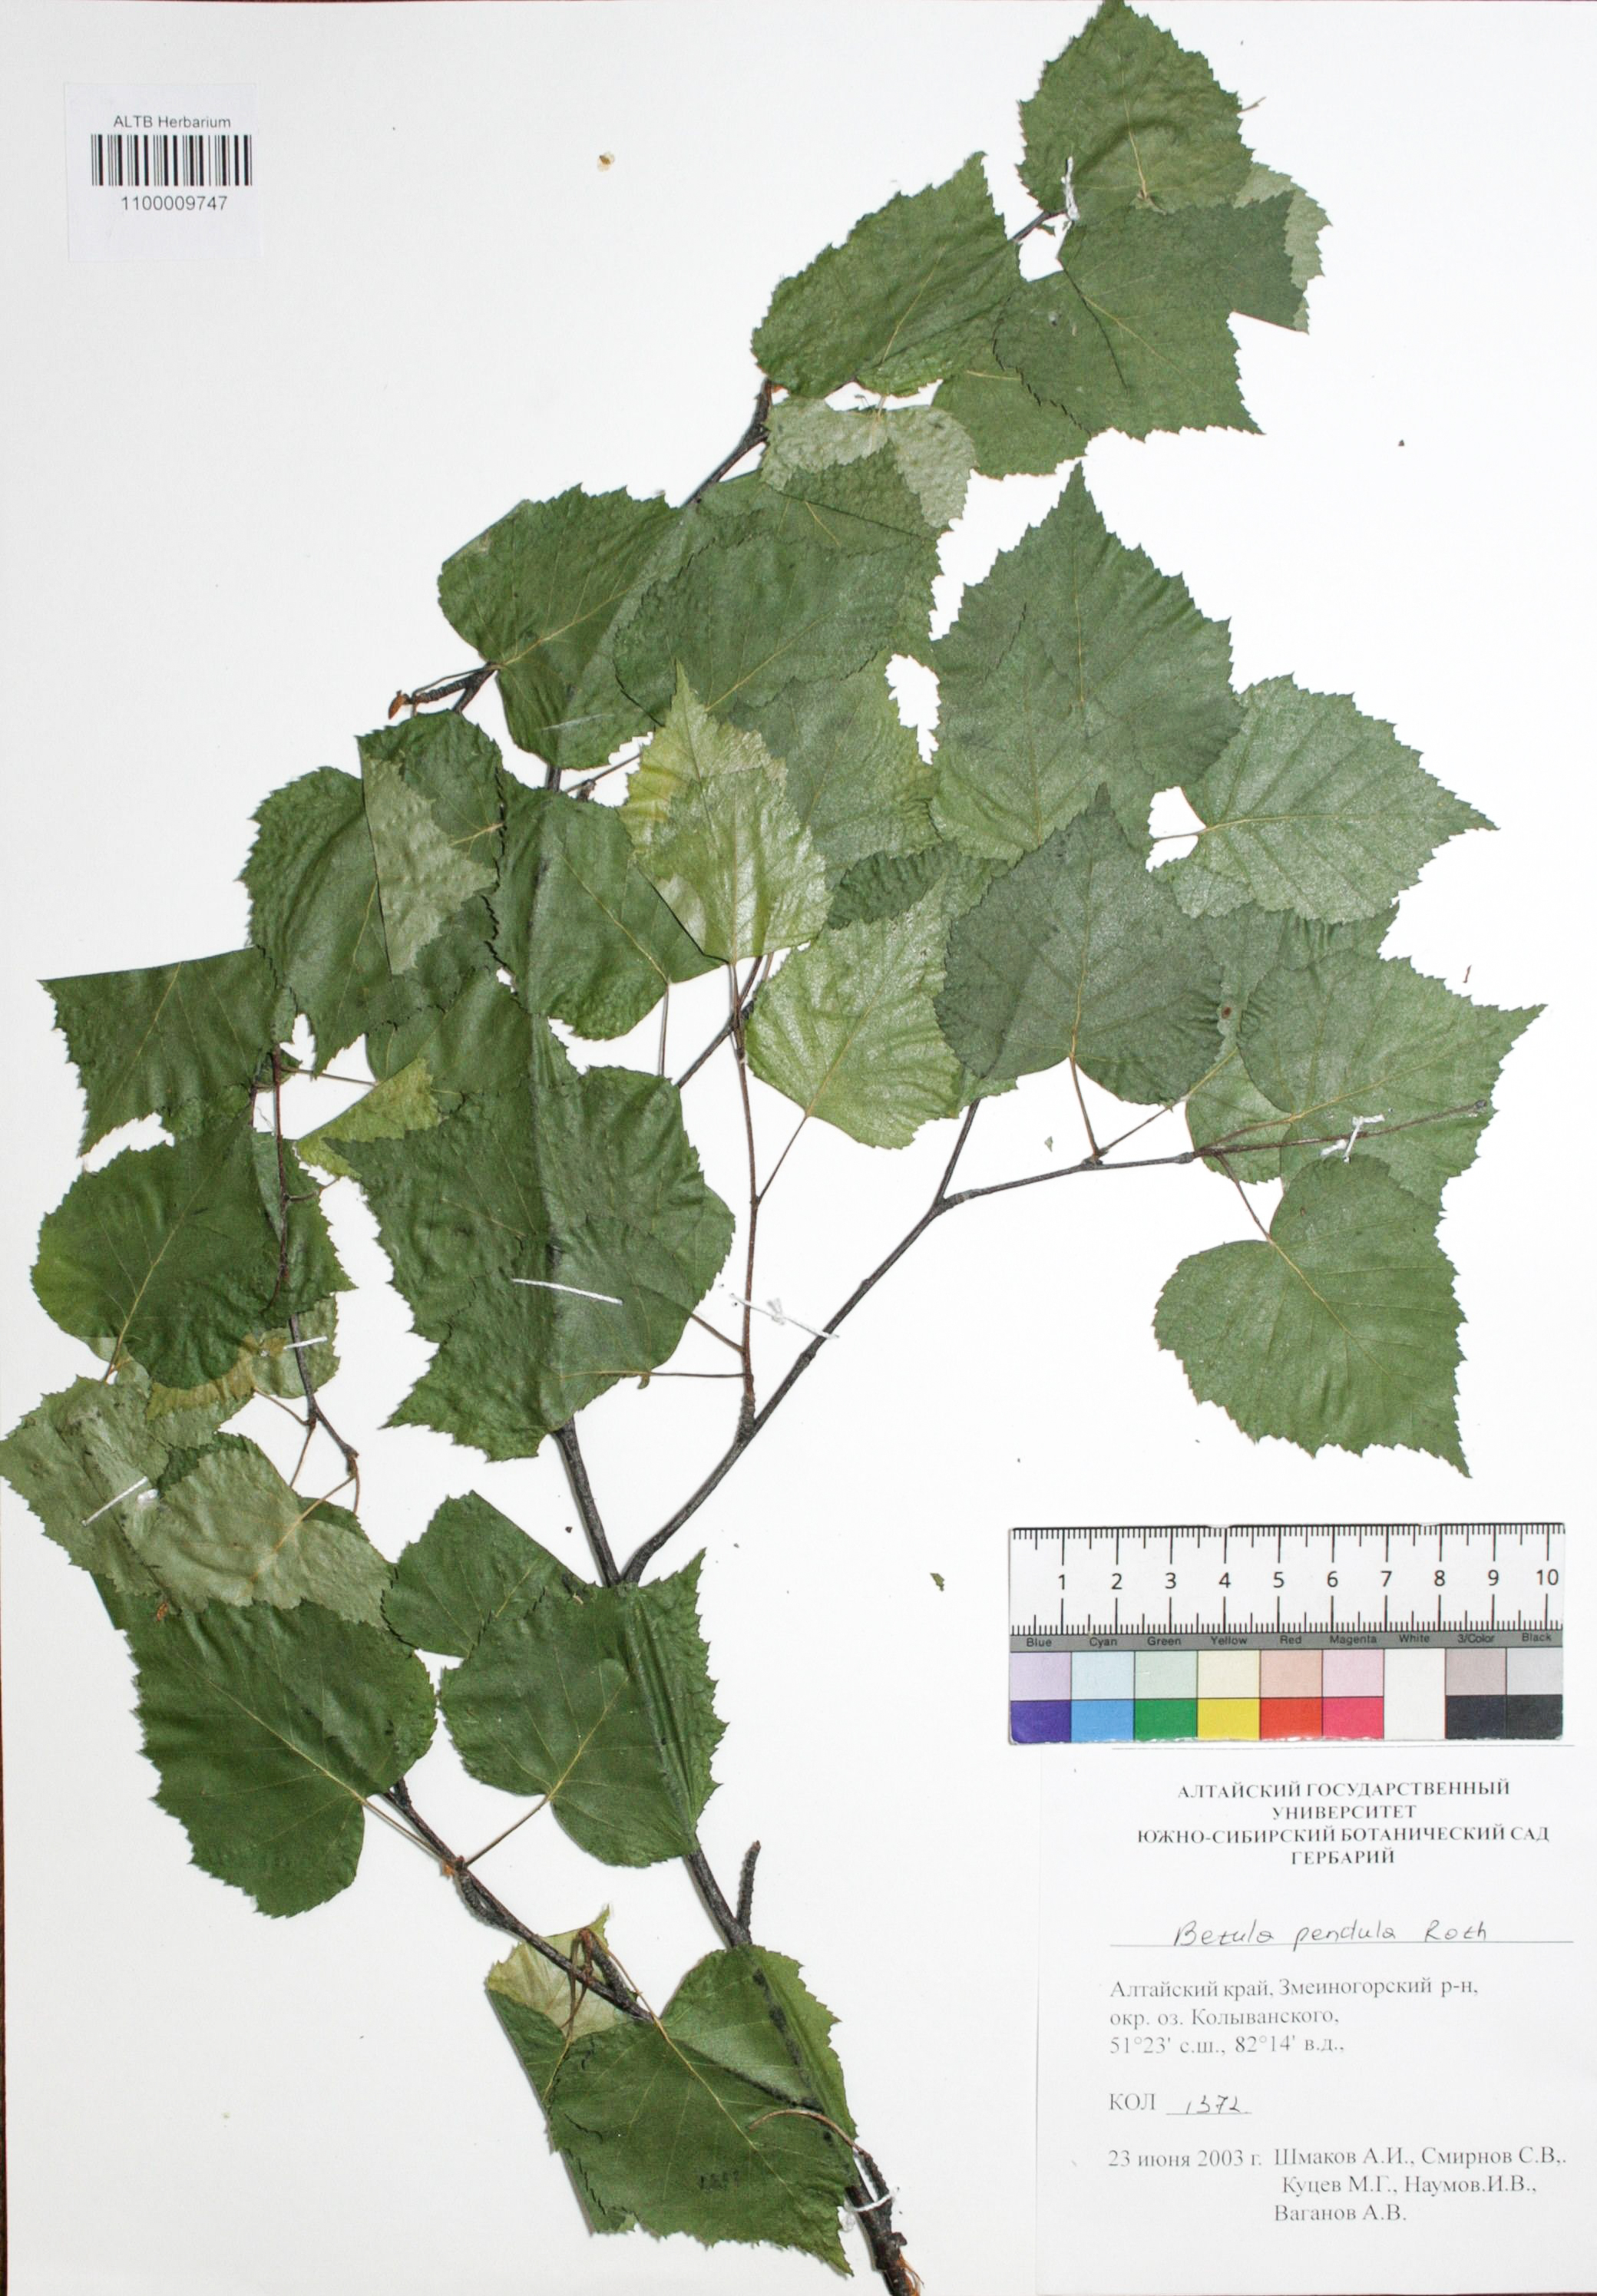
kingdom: Plantae
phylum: Tracheophyta
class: Magnoliopsida
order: Fagales
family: Betulaceae
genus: Betula
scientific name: Betula pendula
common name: Silver birch
